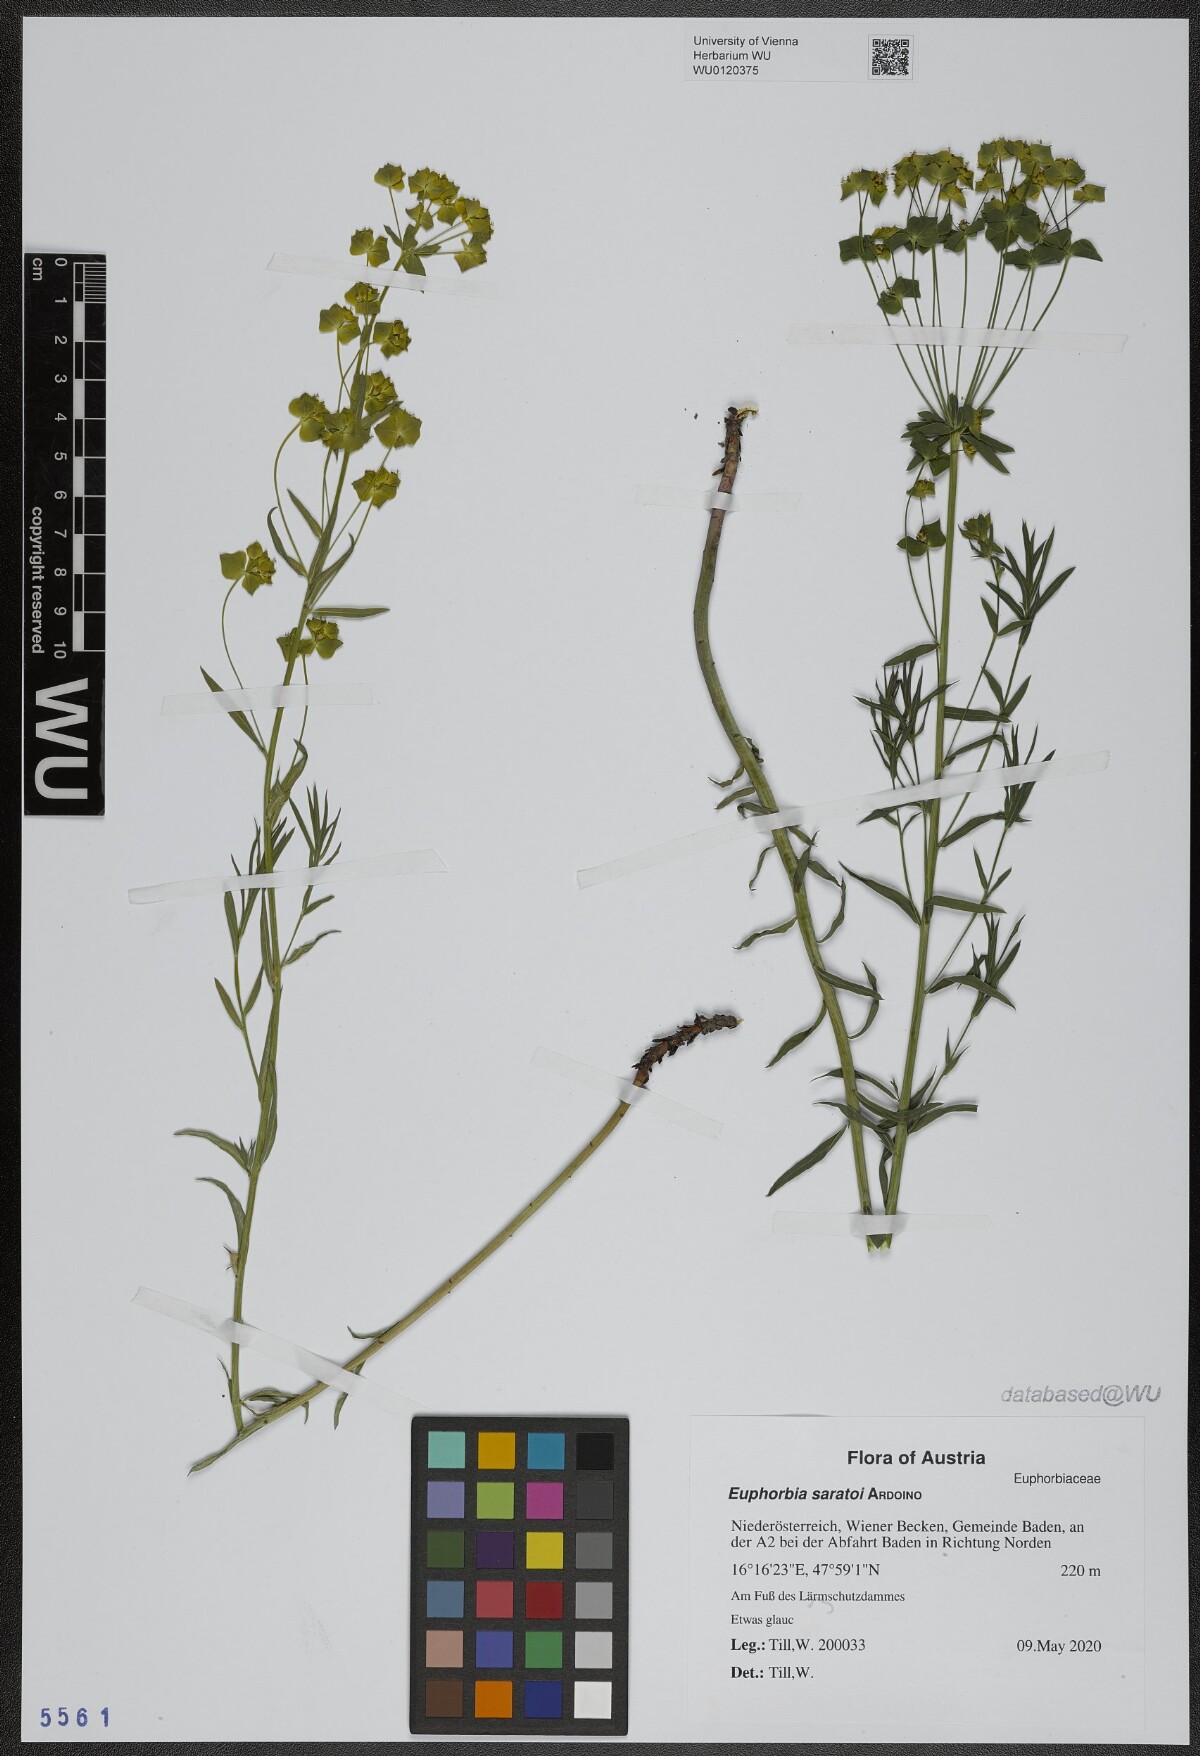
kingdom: Plantae
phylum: Tracheophyta
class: Magnoliopsida
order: Malpighiales
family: Euphorbiaceae
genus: Euphorbia
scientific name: Euphorbia saratoi
